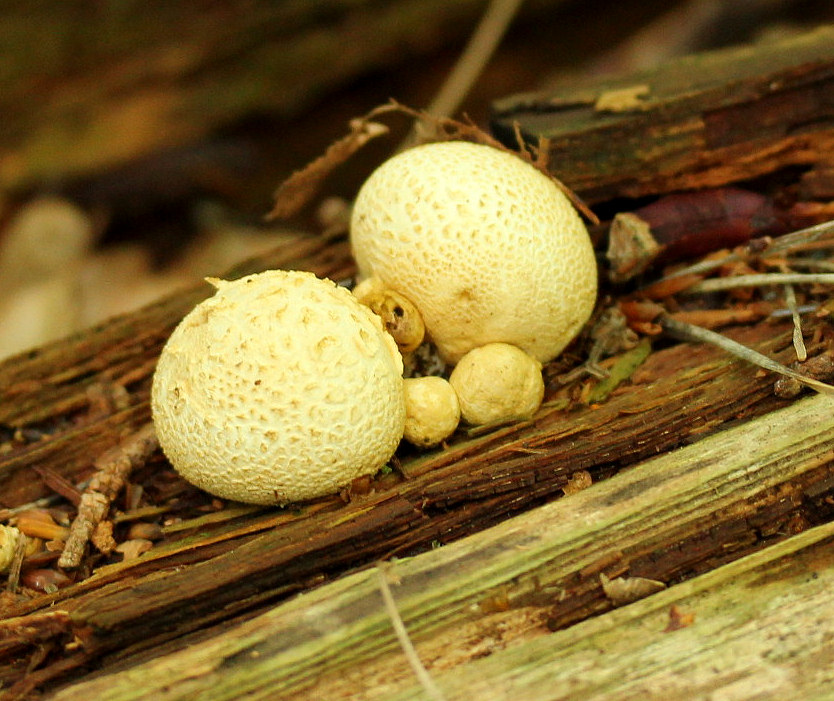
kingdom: Fungi
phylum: Basidiomycota
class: Agaricomycetes
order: Boletales
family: Sclerodermataceae
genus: Scleroderma
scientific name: Scleroderma citrinum
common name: almindelig bruskbold
